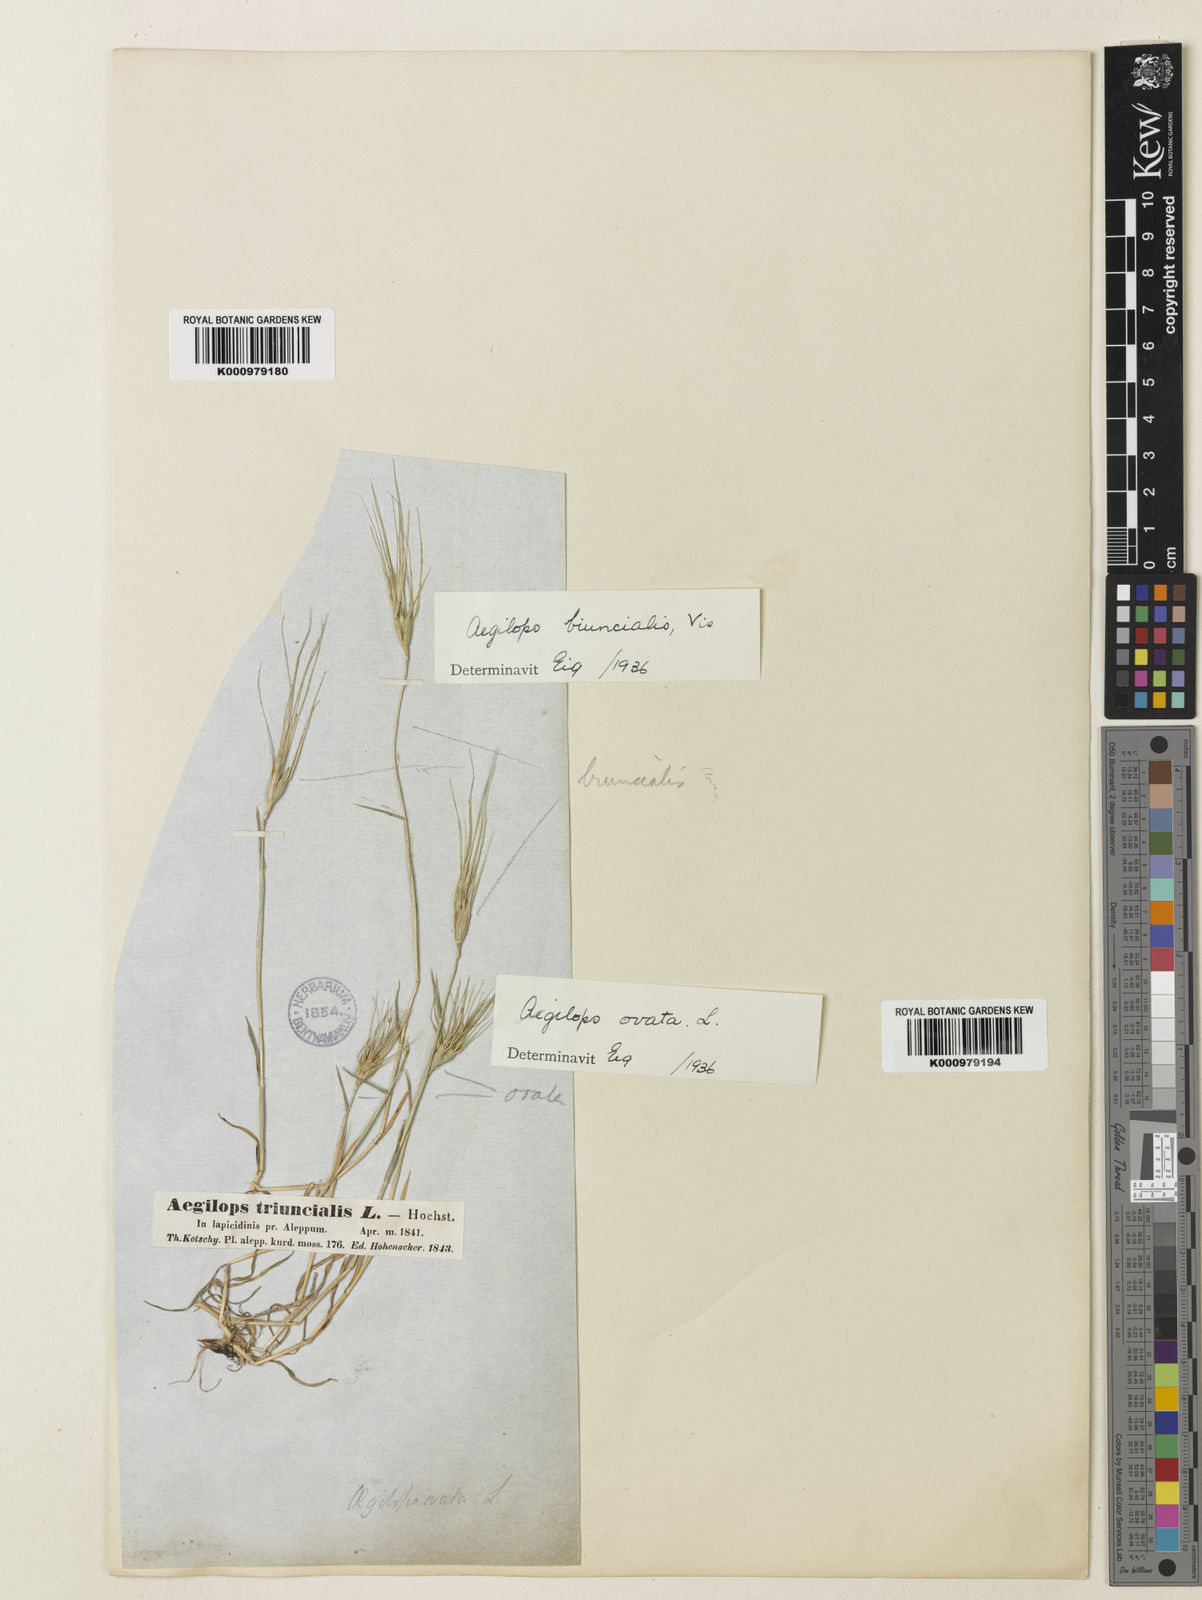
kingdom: Plantae
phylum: Tracheophyta
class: Liliopsida
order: Poales
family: Poaceae
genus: Aegilops
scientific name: Aegilops biuncialis
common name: Mediterranean aegilops
